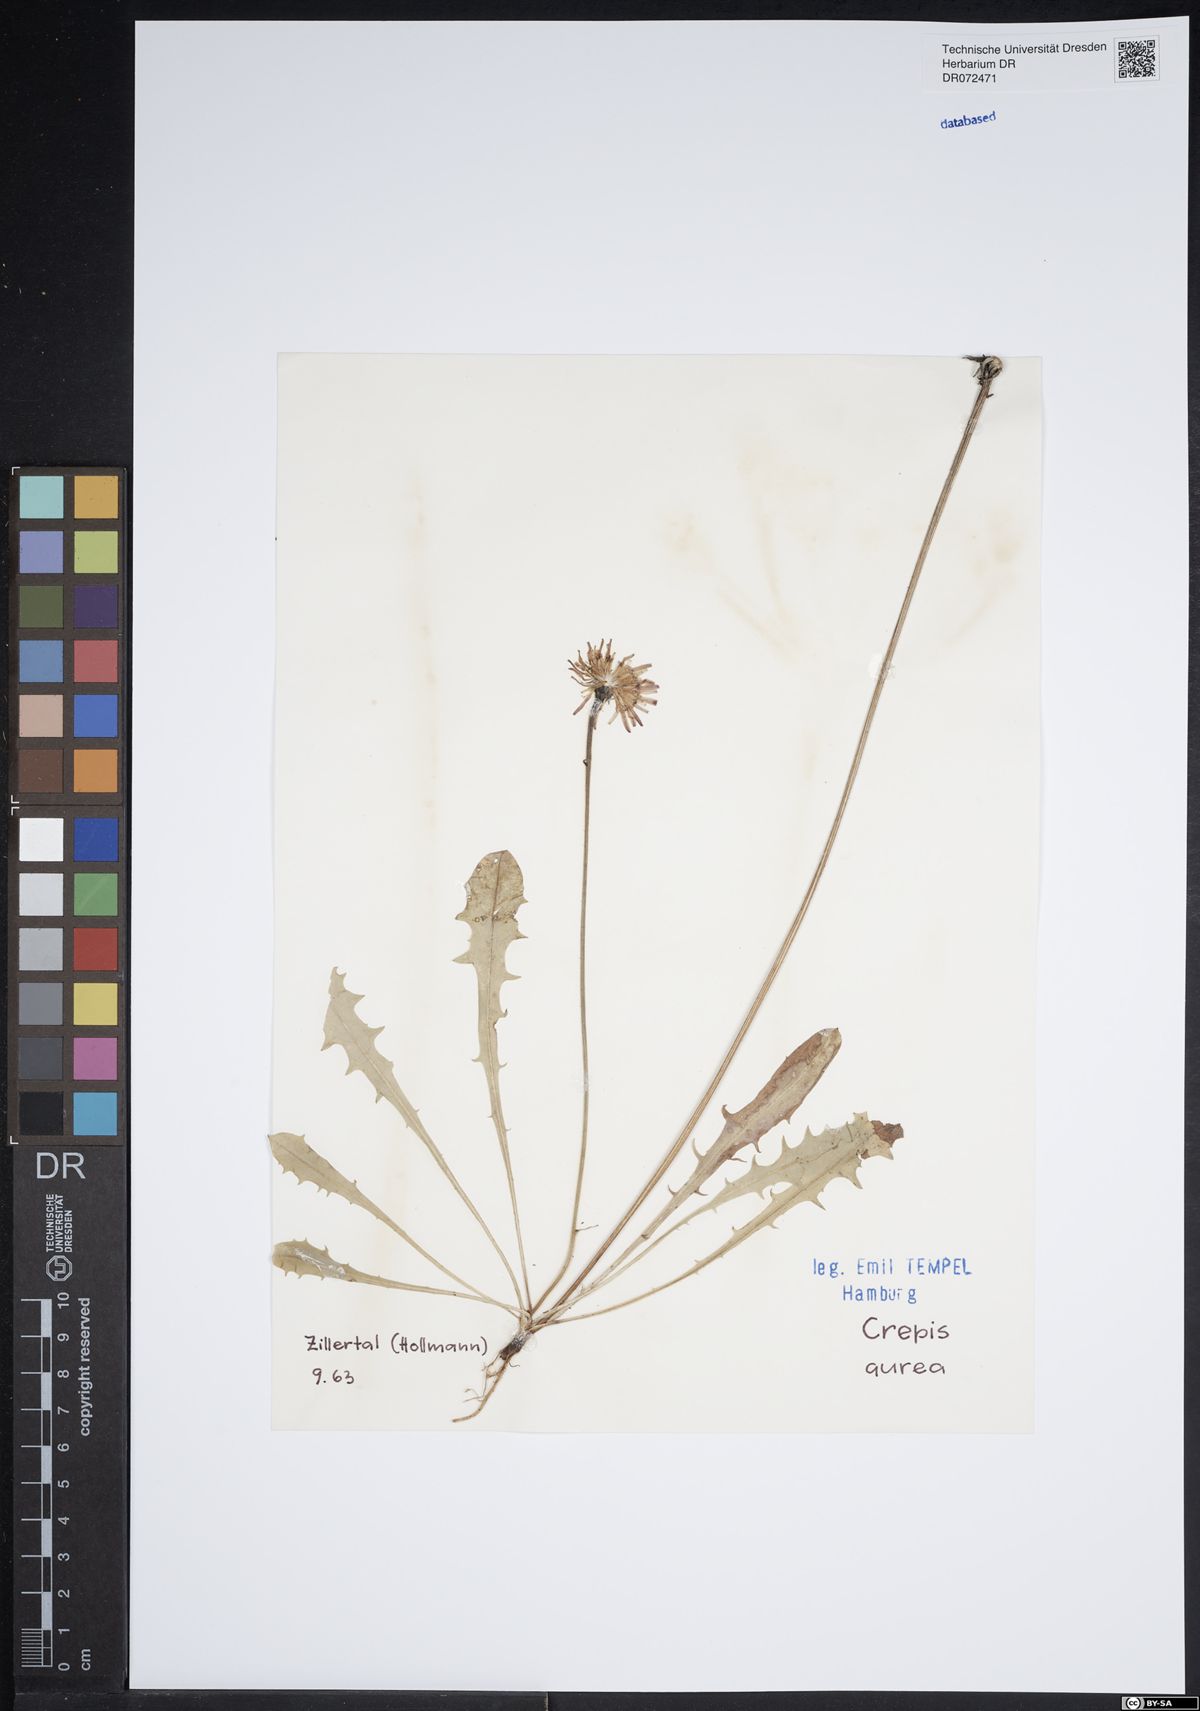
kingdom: Plantae
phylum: Tracheophyta
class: Magnoliopsida
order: Asterales
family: Asteraceae
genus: Crepis
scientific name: Crepis aurea
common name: Golden hawk's-beard
